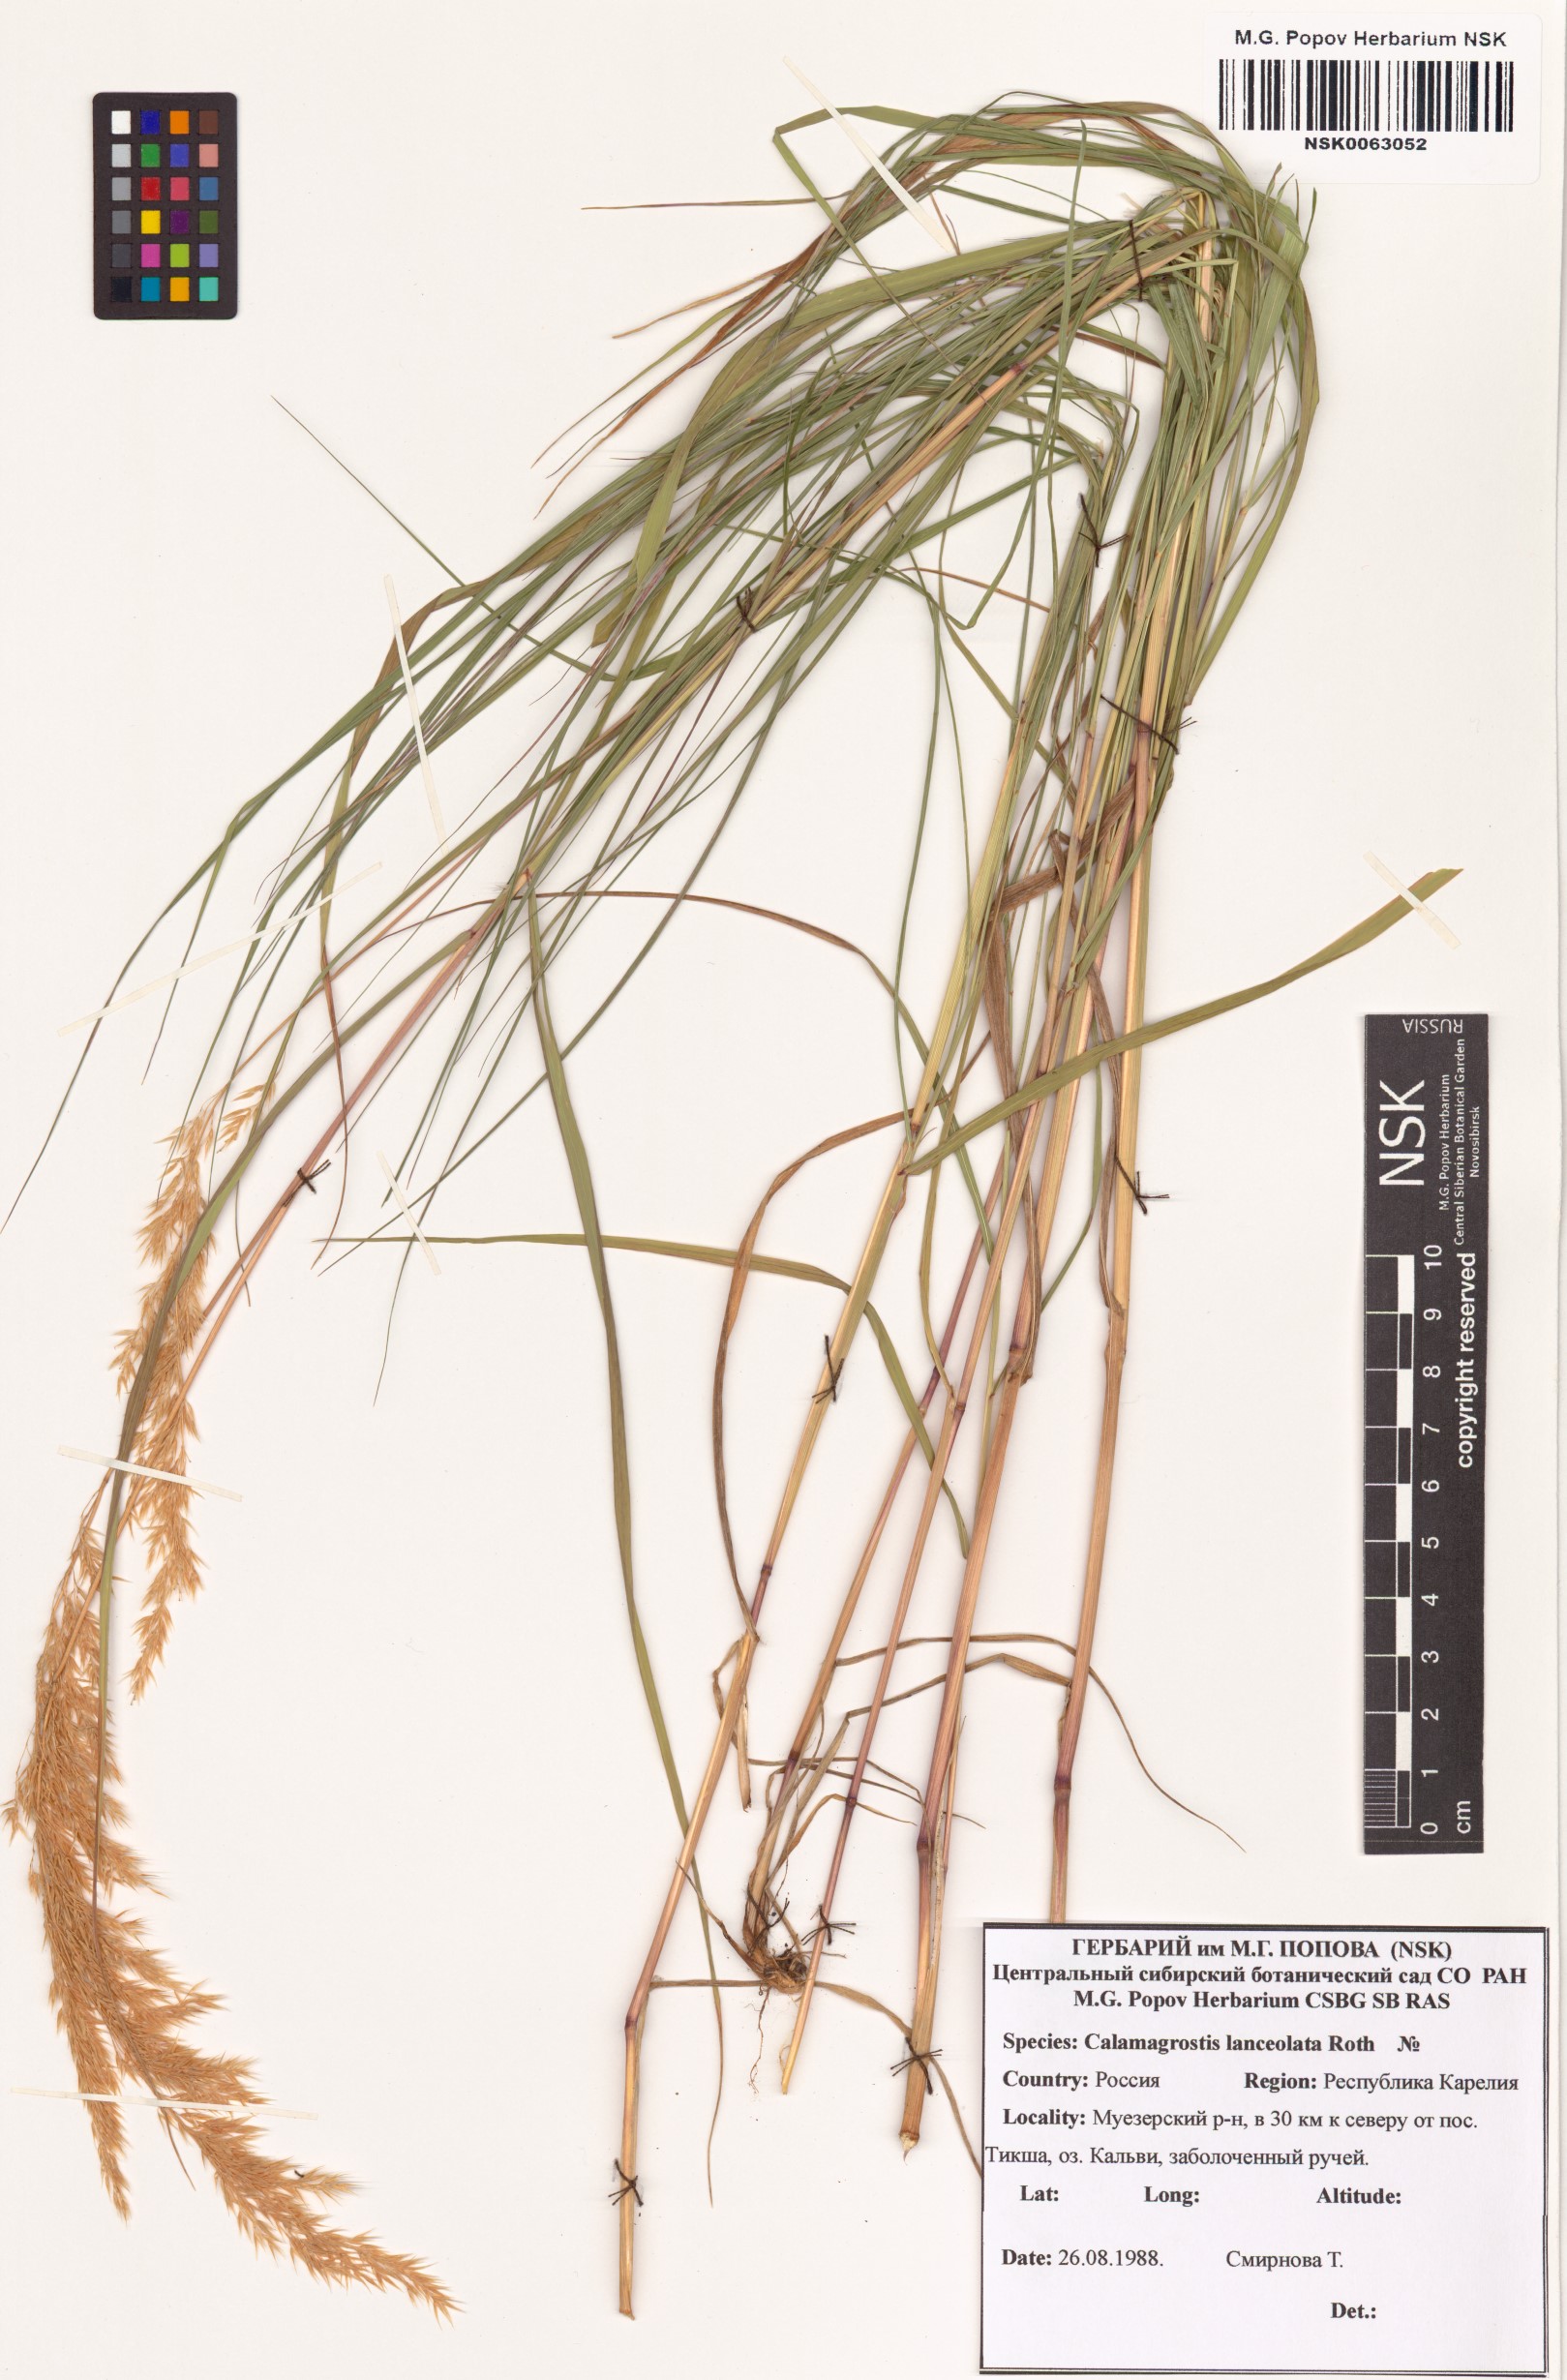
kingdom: Plantae
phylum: Tracheophyta
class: Liliopsida
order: Poales
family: Poaceae
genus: Calamagrostis
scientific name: Calamagrostis canescens
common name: Purple small-reed
